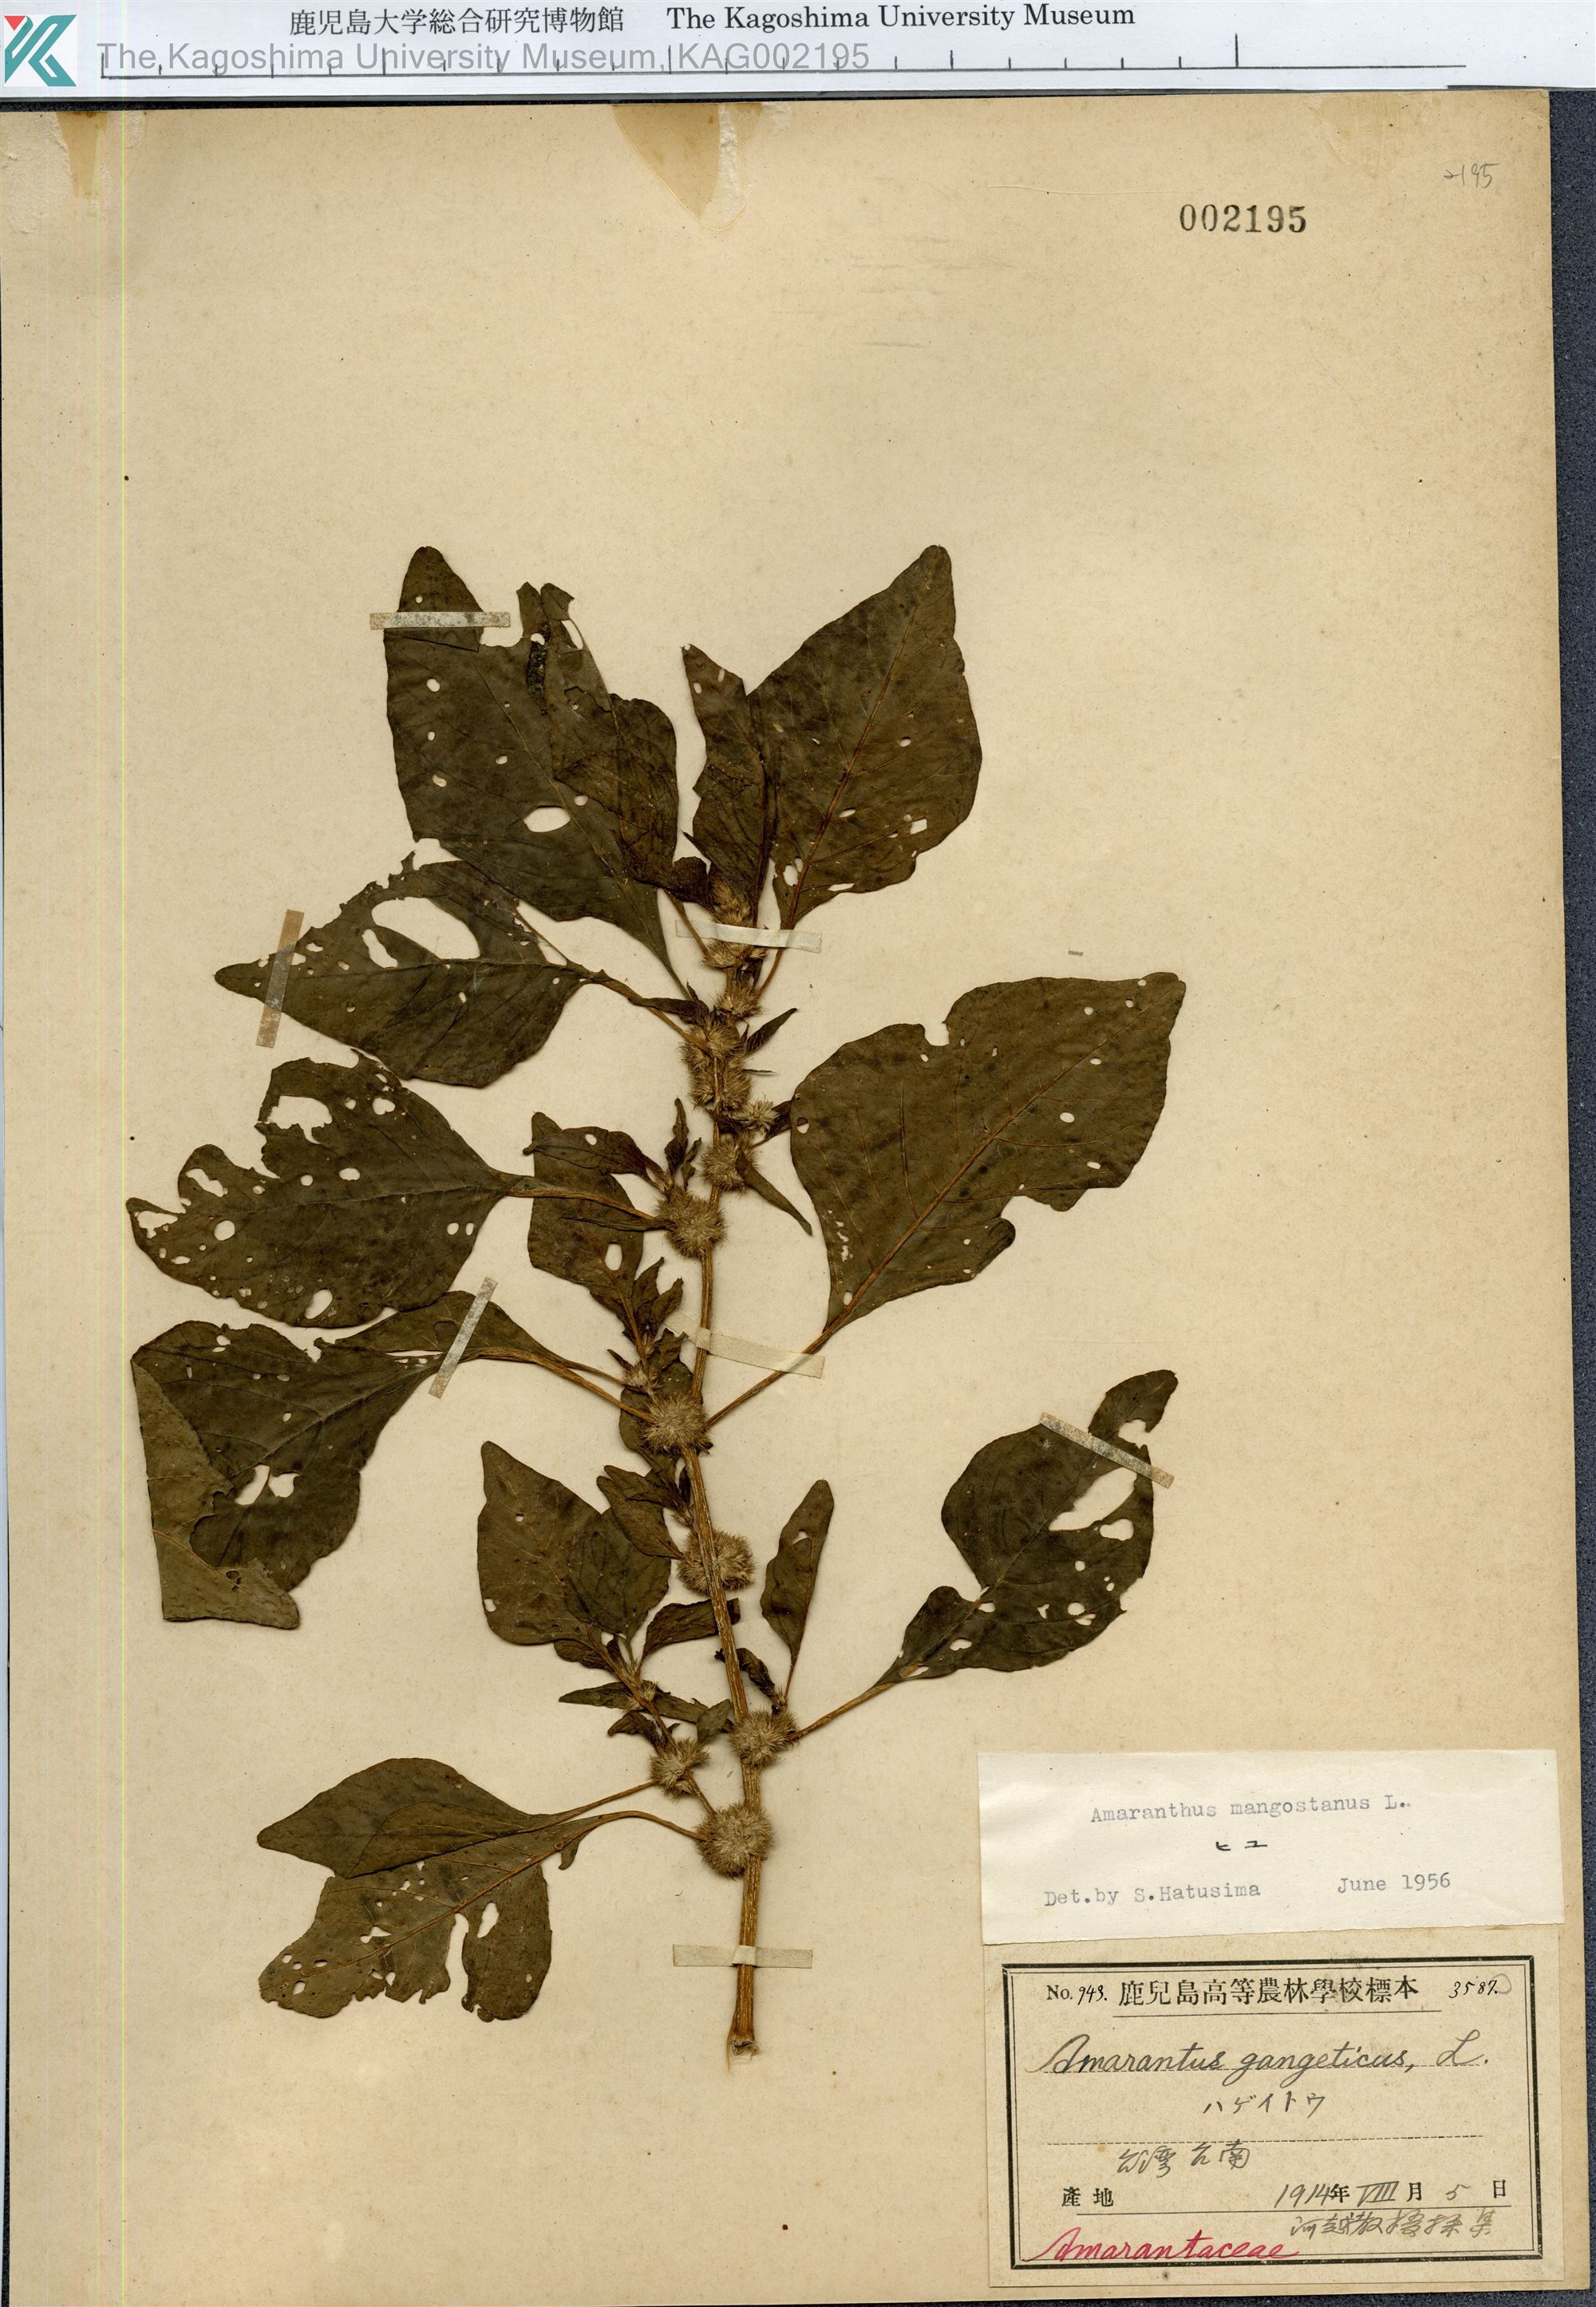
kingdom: Plantae
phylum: Tracheophyta
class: Magnoliopsida
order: Caryophyllales
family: Amaranthaceae
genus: Amaranthus
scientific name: Amaranthus tricolor
